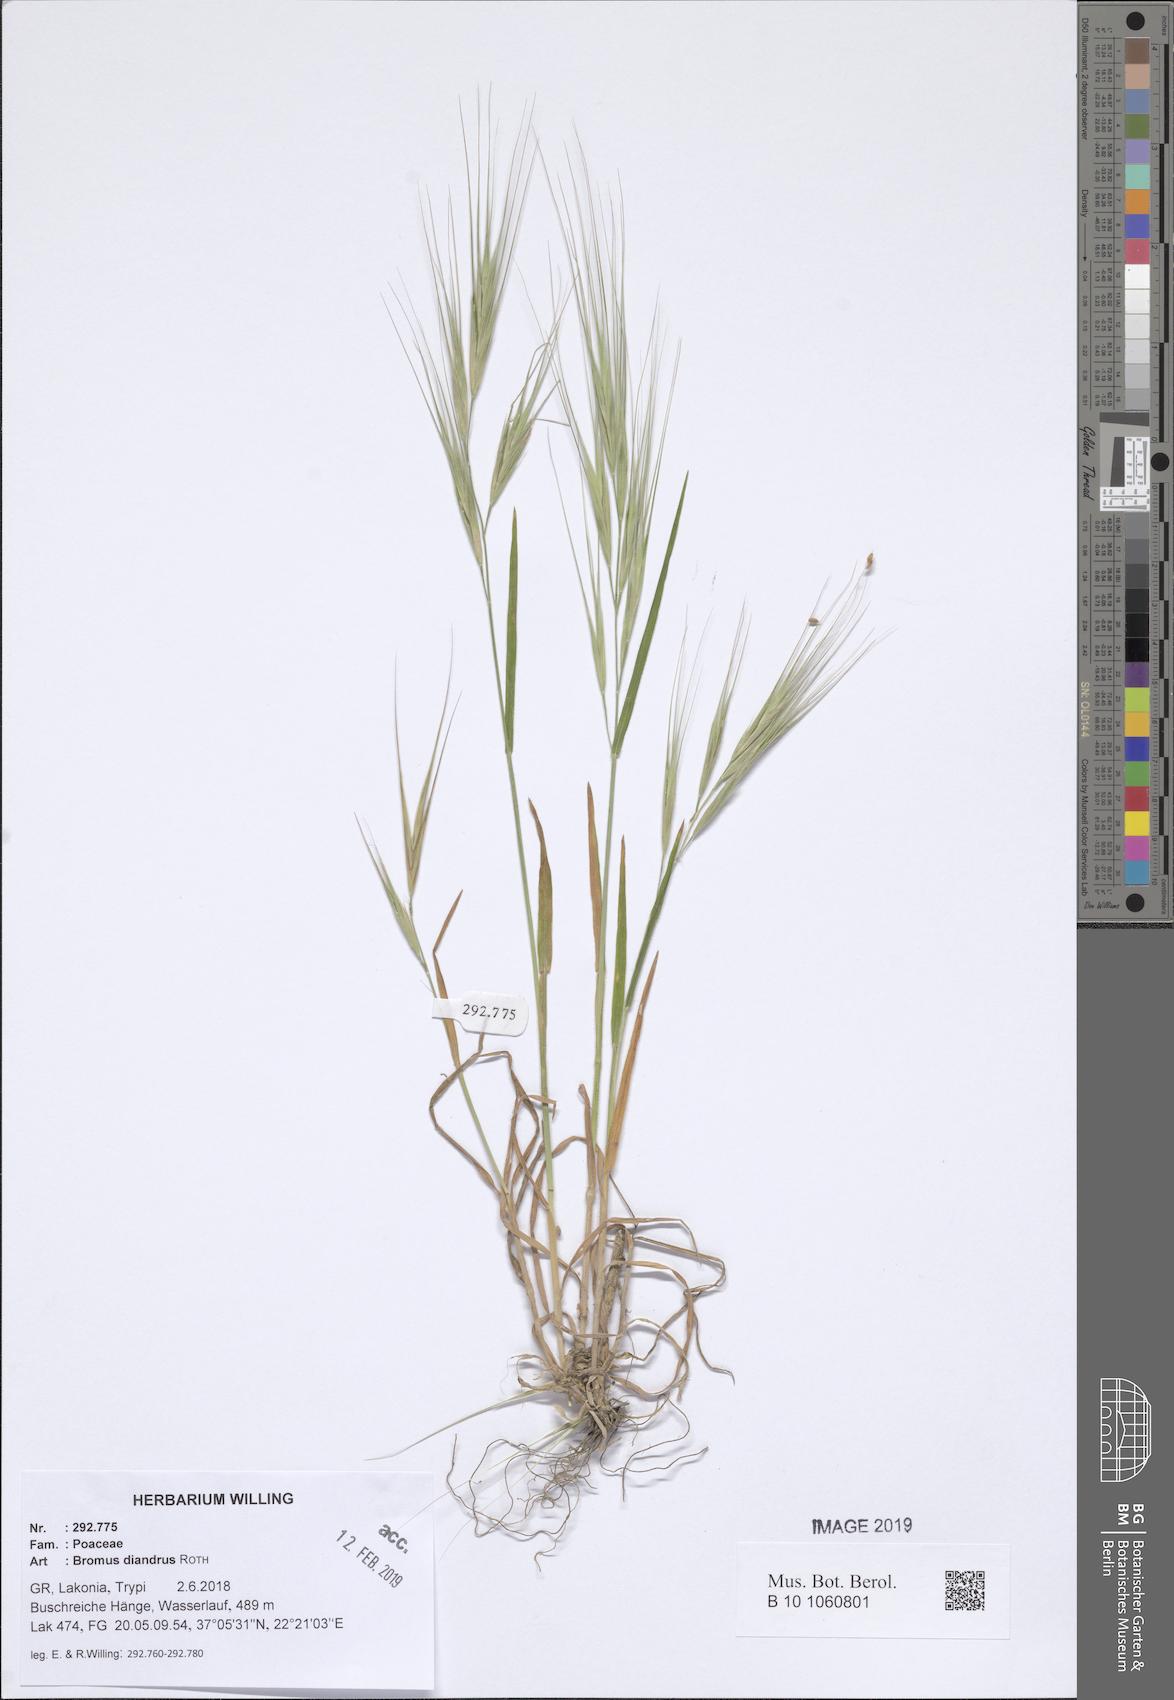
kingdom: Plantae
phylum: Tracheophyta
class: Liliopsida
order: Poales
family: Poaceae
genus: Bromus
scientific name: Bromus diandrus
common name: Ripgut brome
